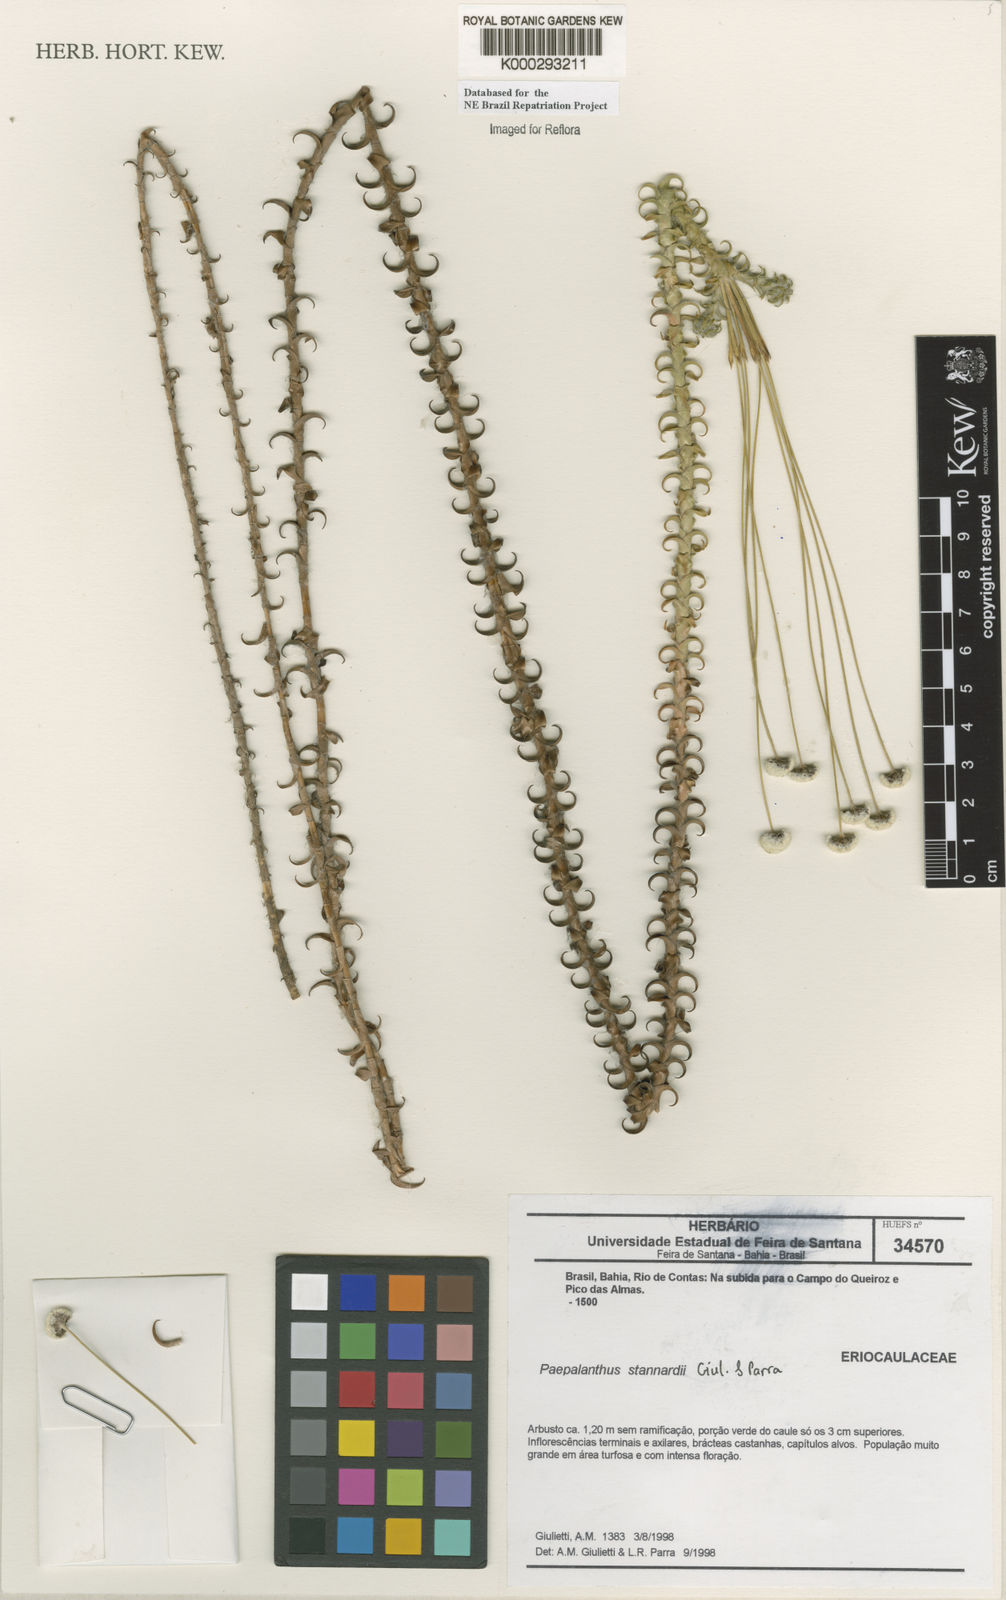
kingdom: Plantae
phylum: Tracheophyta
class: Liliopsida
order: Poales
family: Eriocaulaceae
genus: Paepalanthus
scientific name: Paepalanthus stannardii
